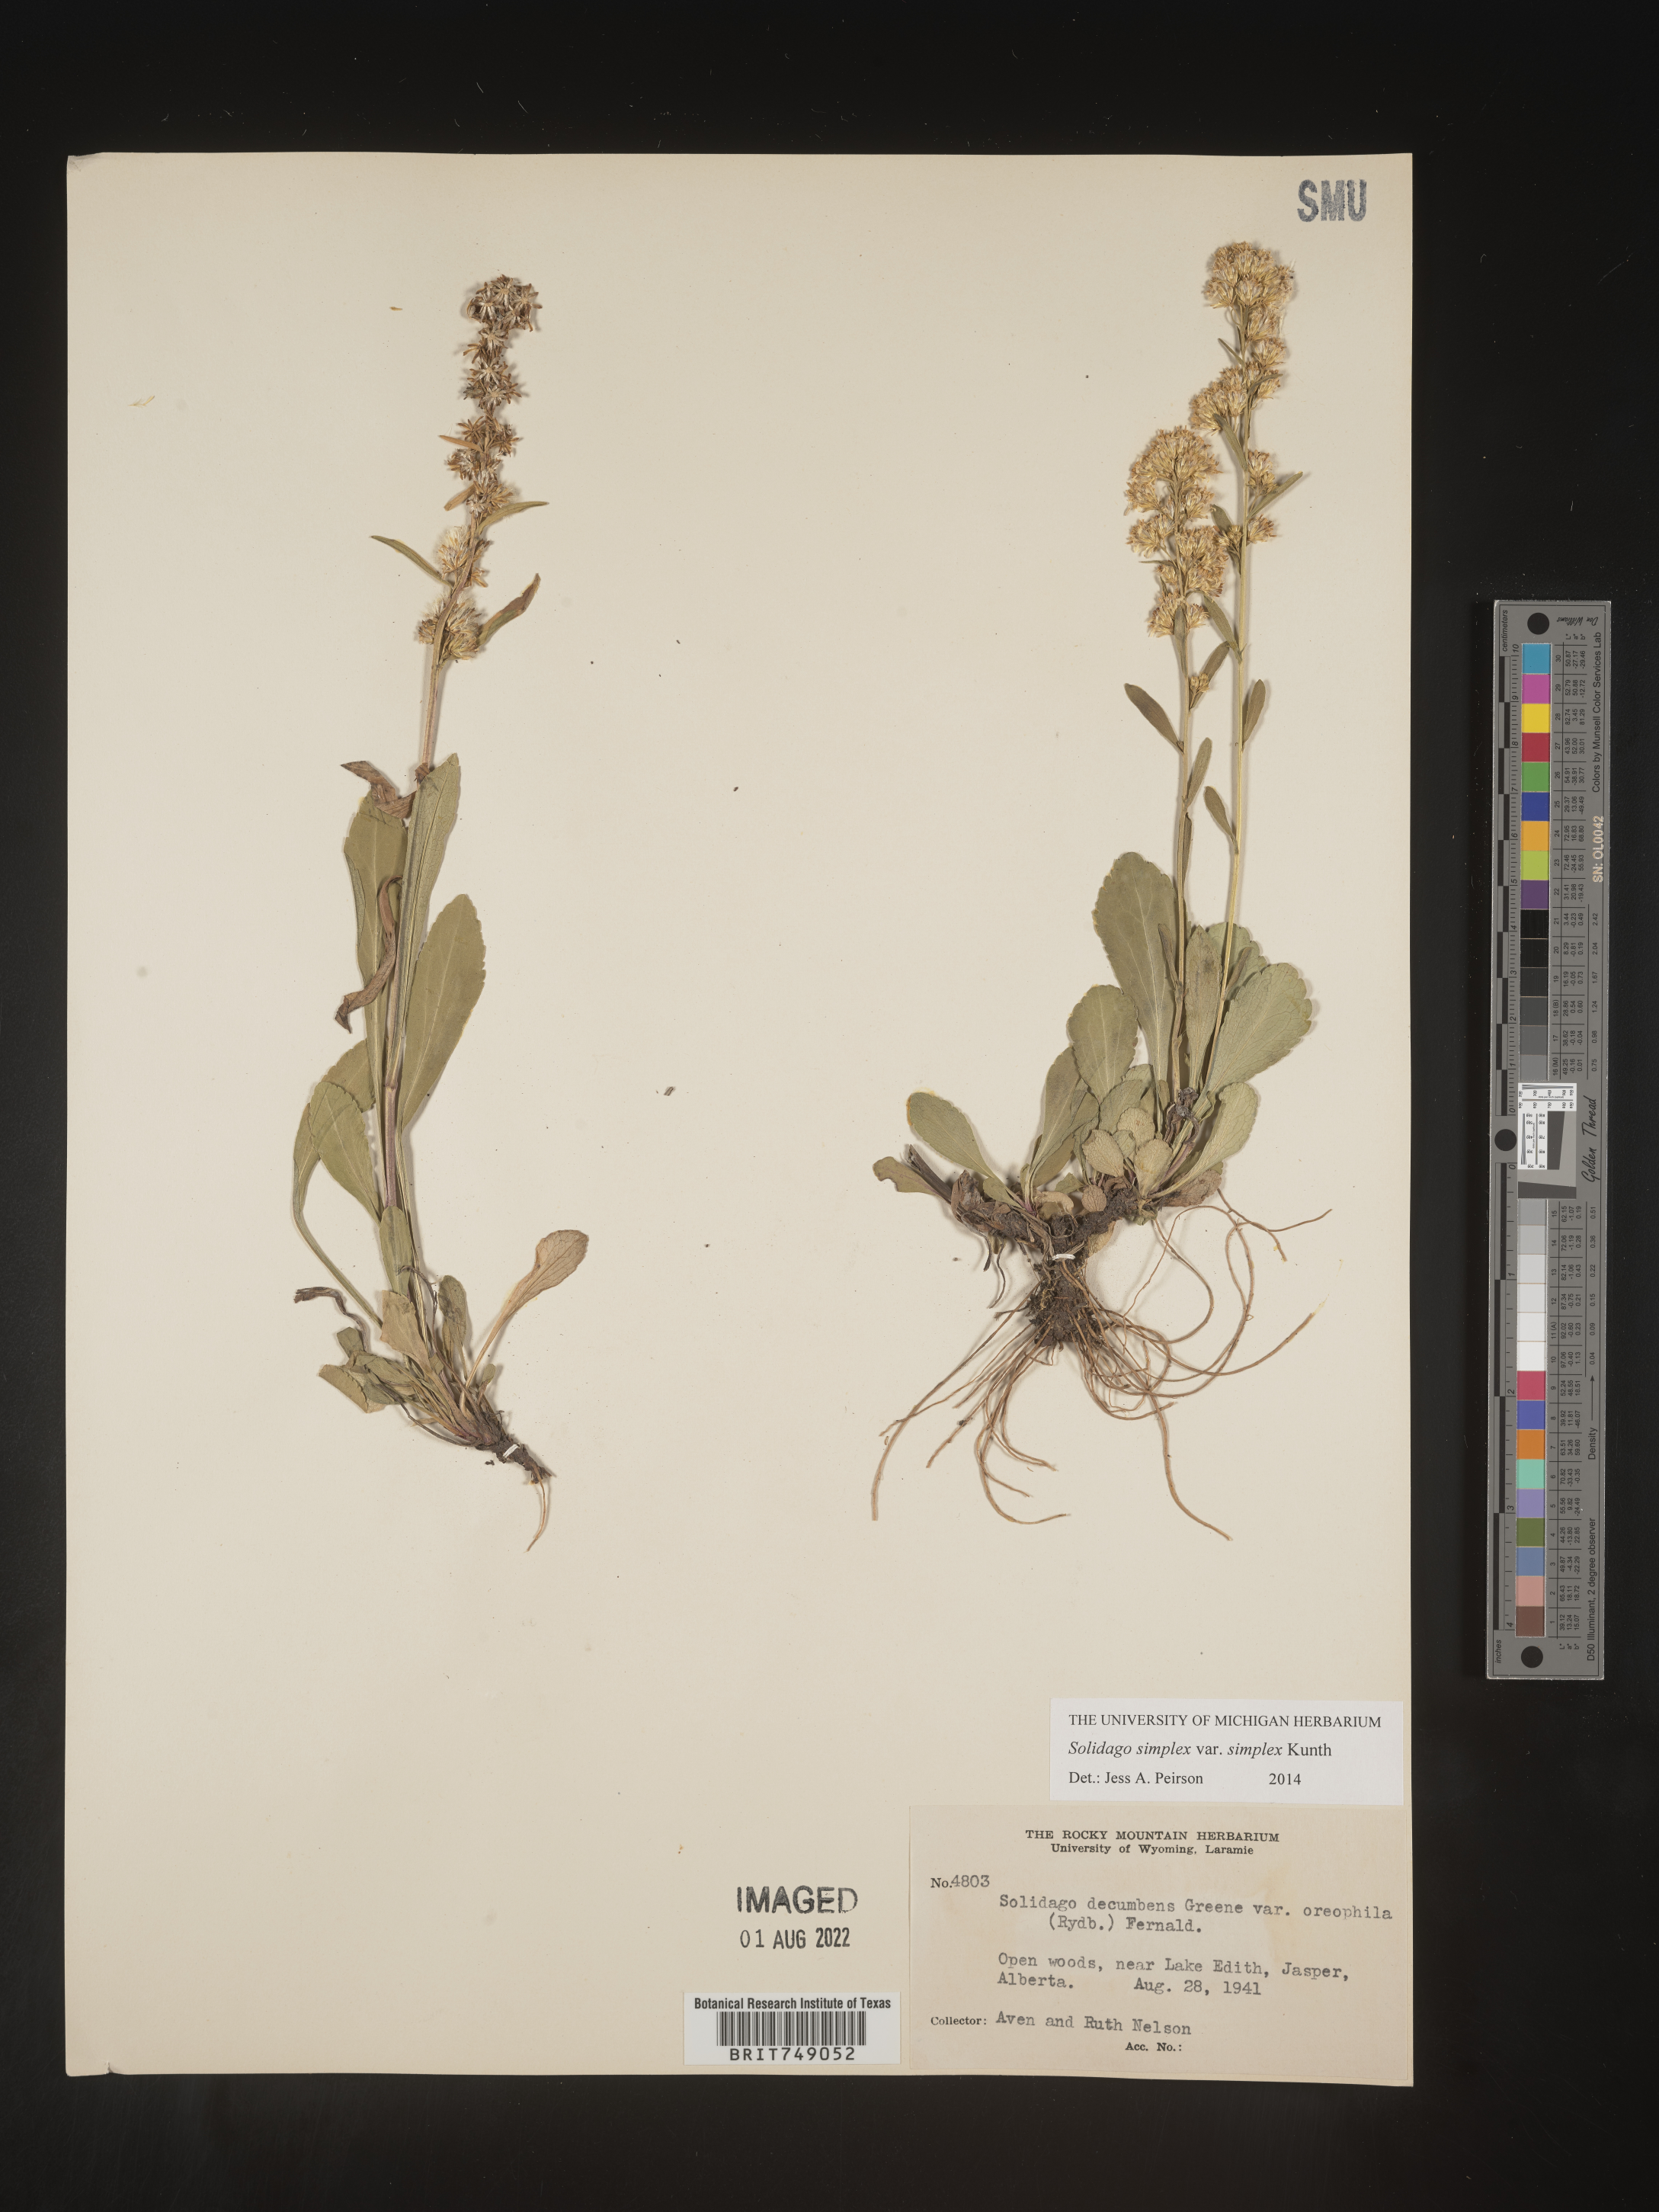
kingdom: Plantae
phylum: Tracheophyta
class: Magnoliopsida
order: Asterales
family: Asteraceae
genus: Solidago
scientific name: Solidago simplex
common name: Sticky goldenrod
